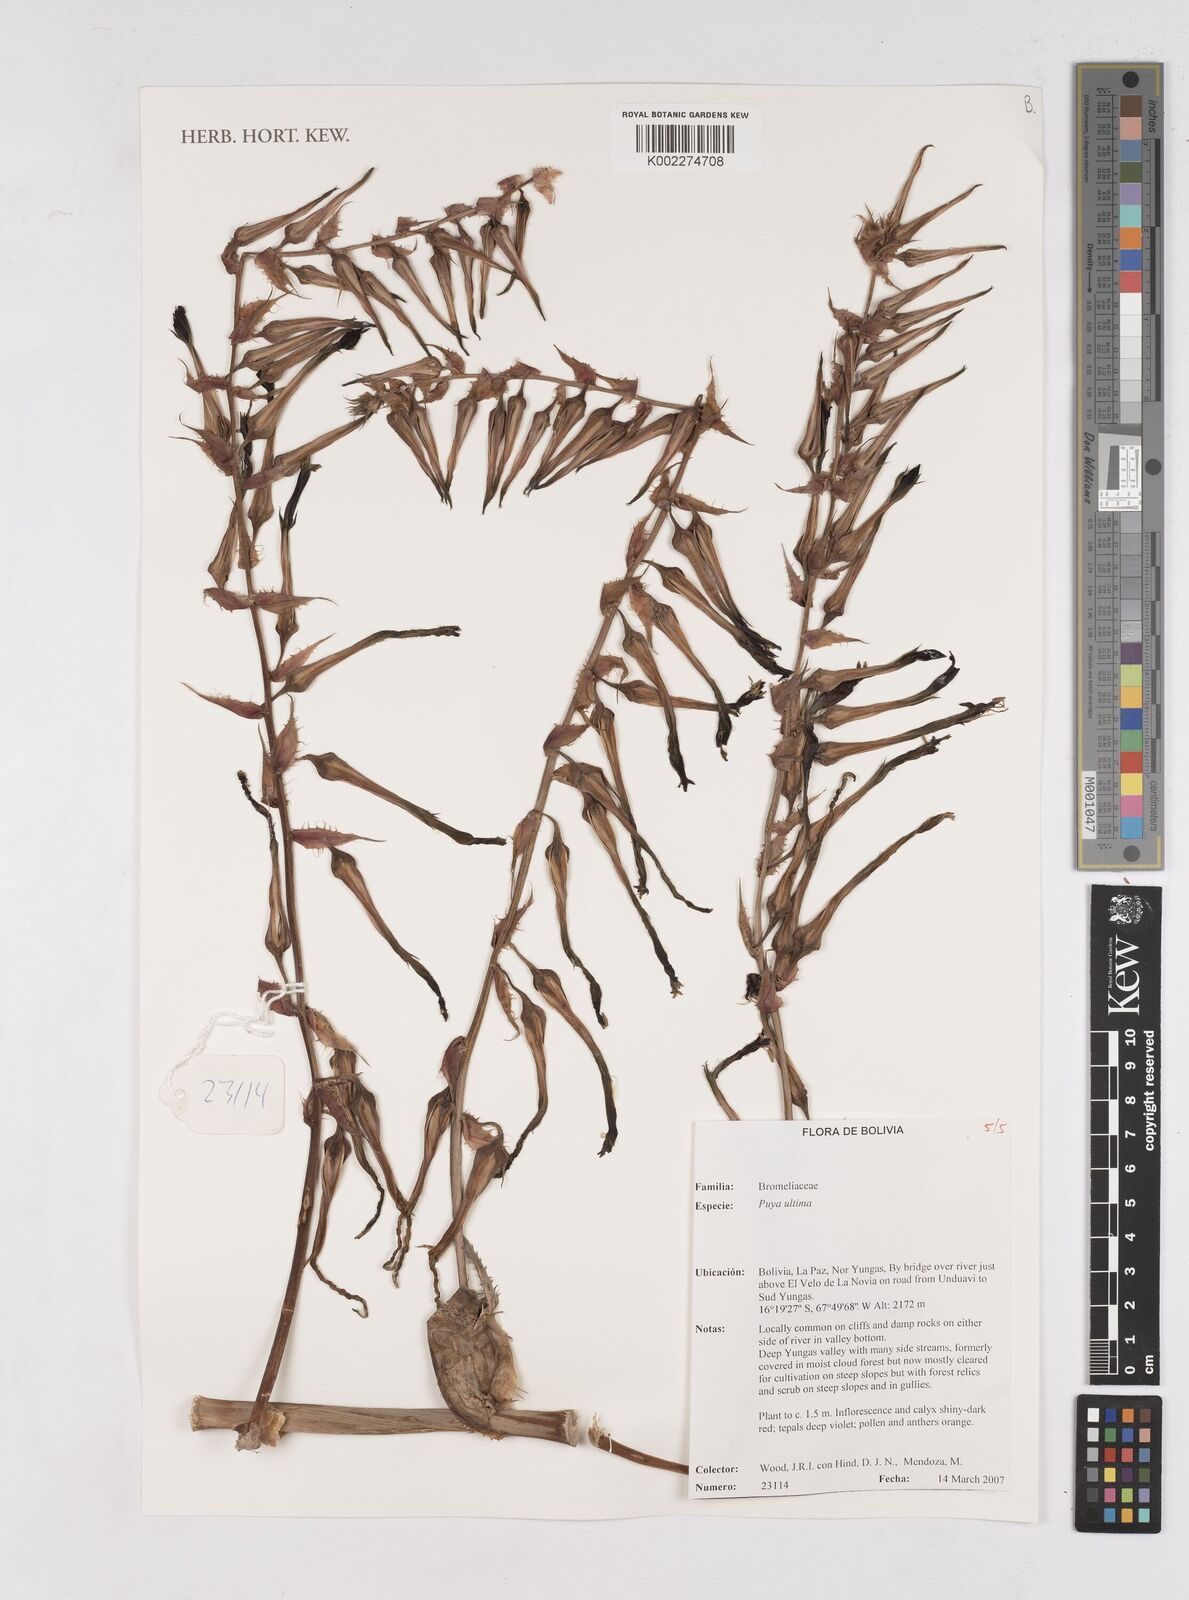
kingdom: Plantae
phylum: Tracheophyta
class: Liliopsida
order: Poales
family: Bromeliaceae
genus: Puya
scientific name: Puya
